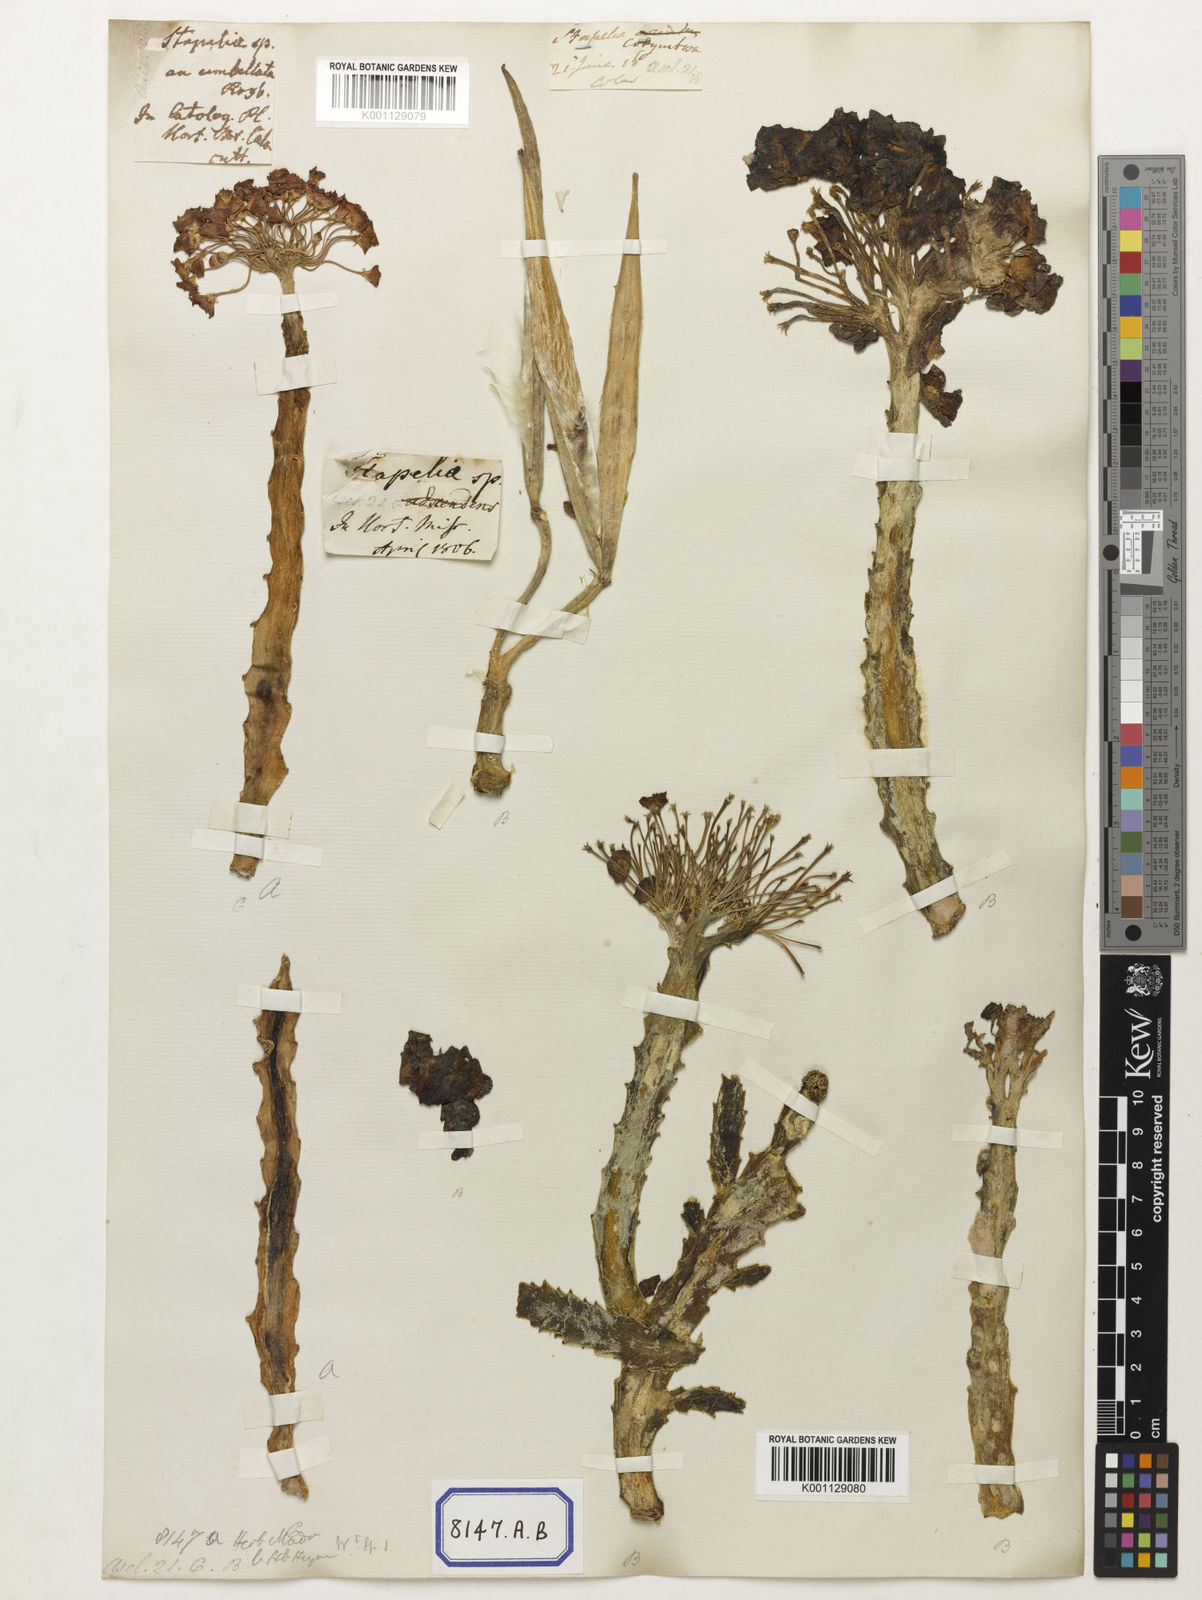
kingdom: Plantae
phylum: Tracheophyta
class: Magnoliopsida
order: Gentianales
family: Apocynaceae
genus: Ceropegia
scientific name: Ceropegia umbellata
